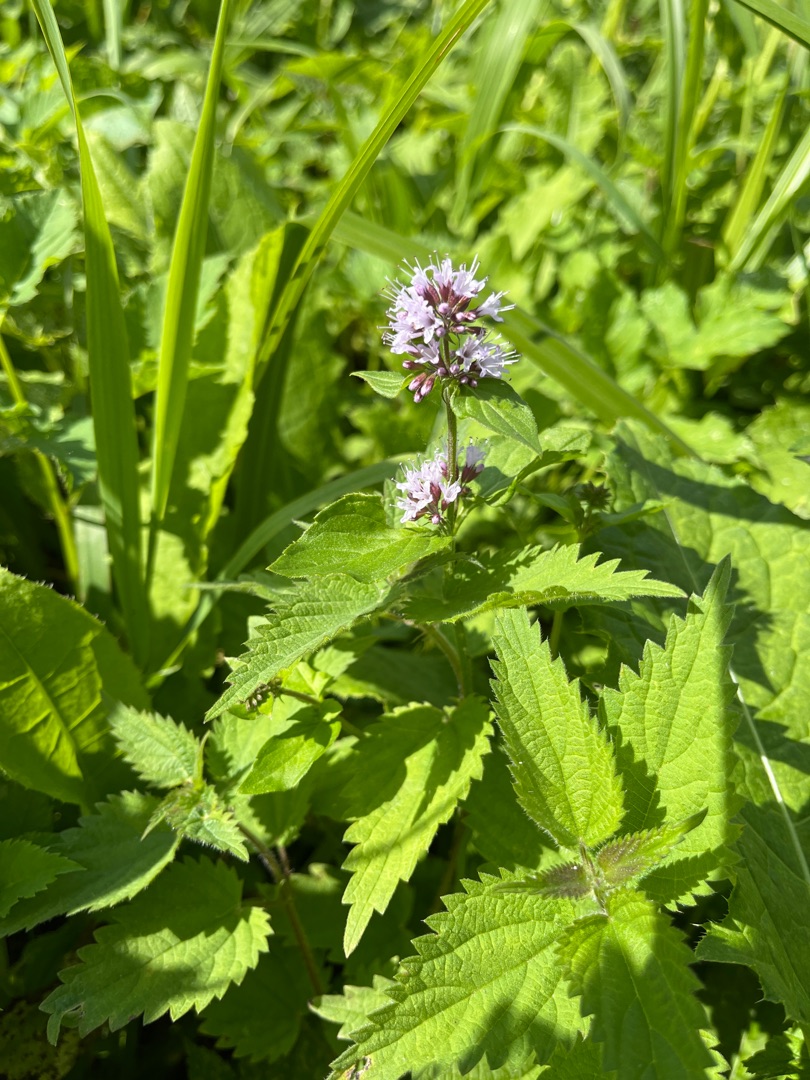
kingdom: Plantae
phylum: Tracheophyta
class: Magnoliopsida
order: Lamiales
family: Lamiaceae
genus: Mentha
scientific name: Mentha aquatica
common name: Vand-mynte
